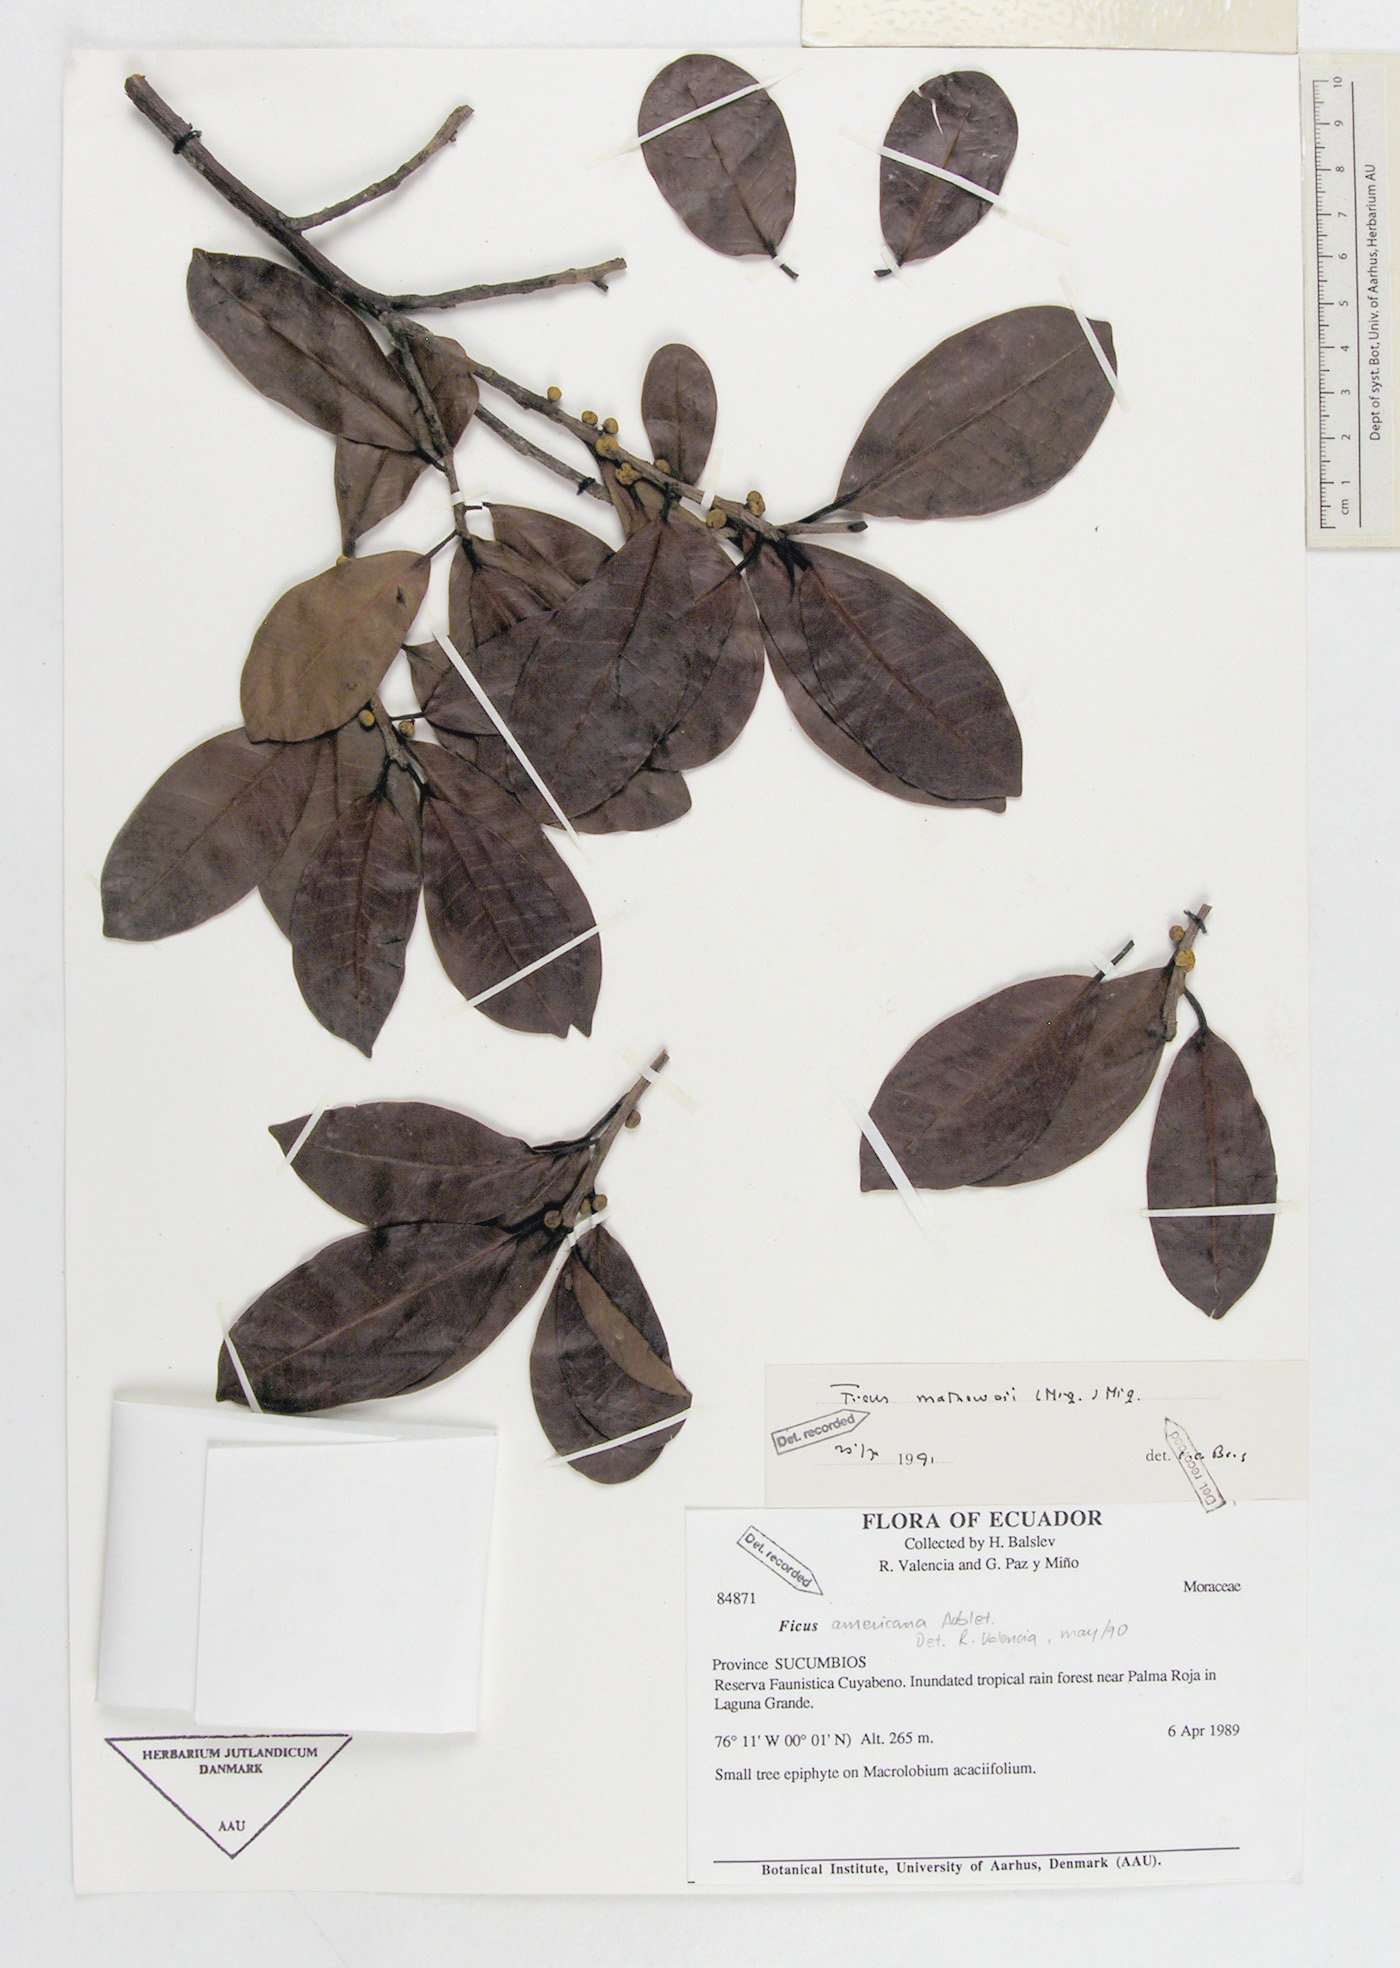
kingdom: Plantae
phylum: Tracheophyta
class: Magnoliopsida
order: Rosales
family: Moraceae
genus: Ficus
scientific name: Ficus americana
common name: Jamaican cherry fig
